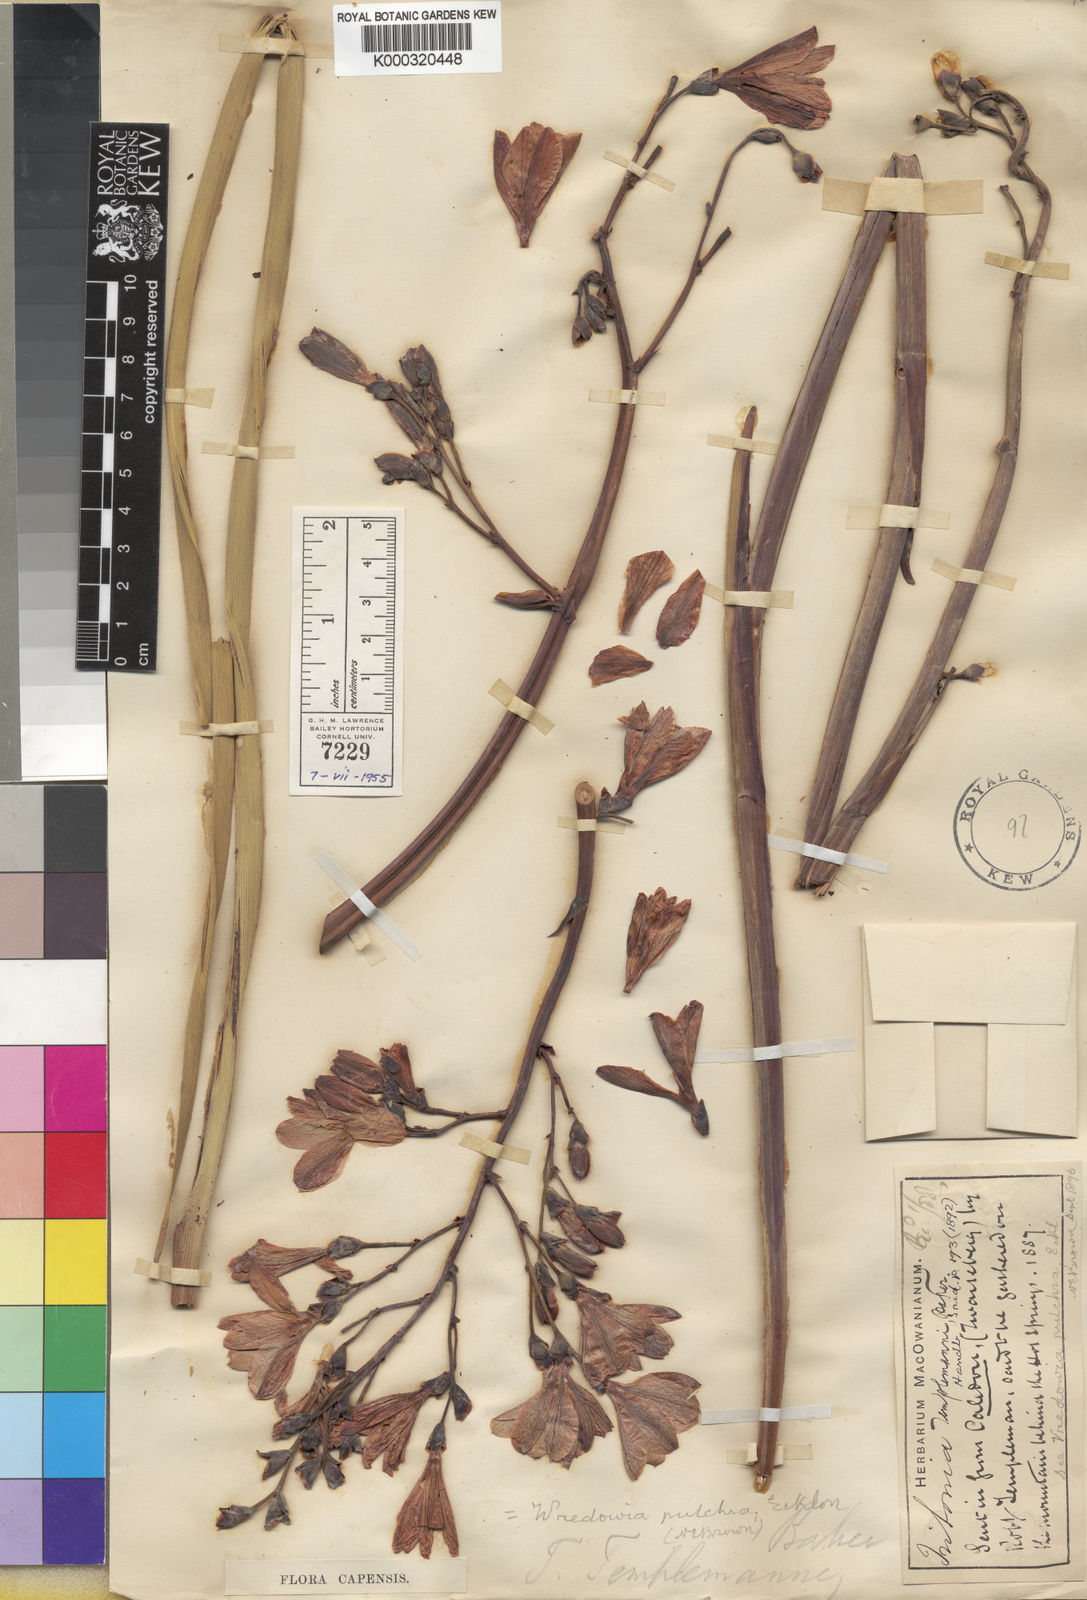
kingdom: Plantae
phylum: Tracheophyta
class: Liliopsida
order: Asparagales
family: Iridaceae
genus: Pillansia
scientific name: Pillansia templemannii
